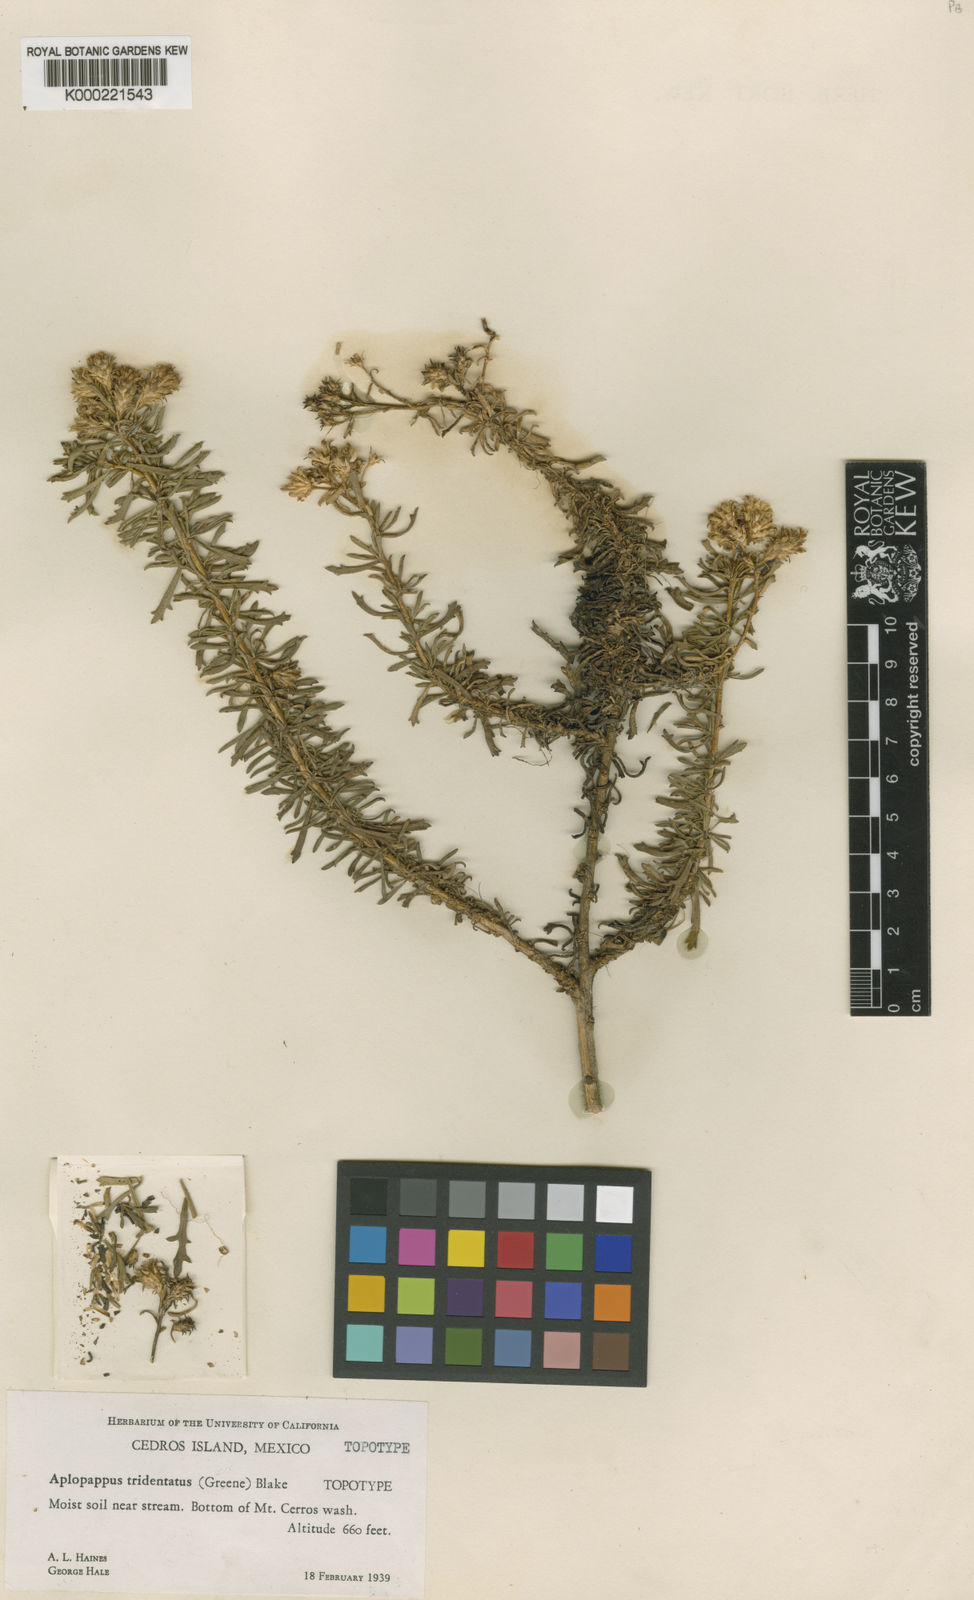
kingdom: Plantae
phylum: Tracheophyta
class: Magnoliopsida
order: Asterales
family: Asteraceae
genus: Isocoma
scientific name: Isocoma menziesii
